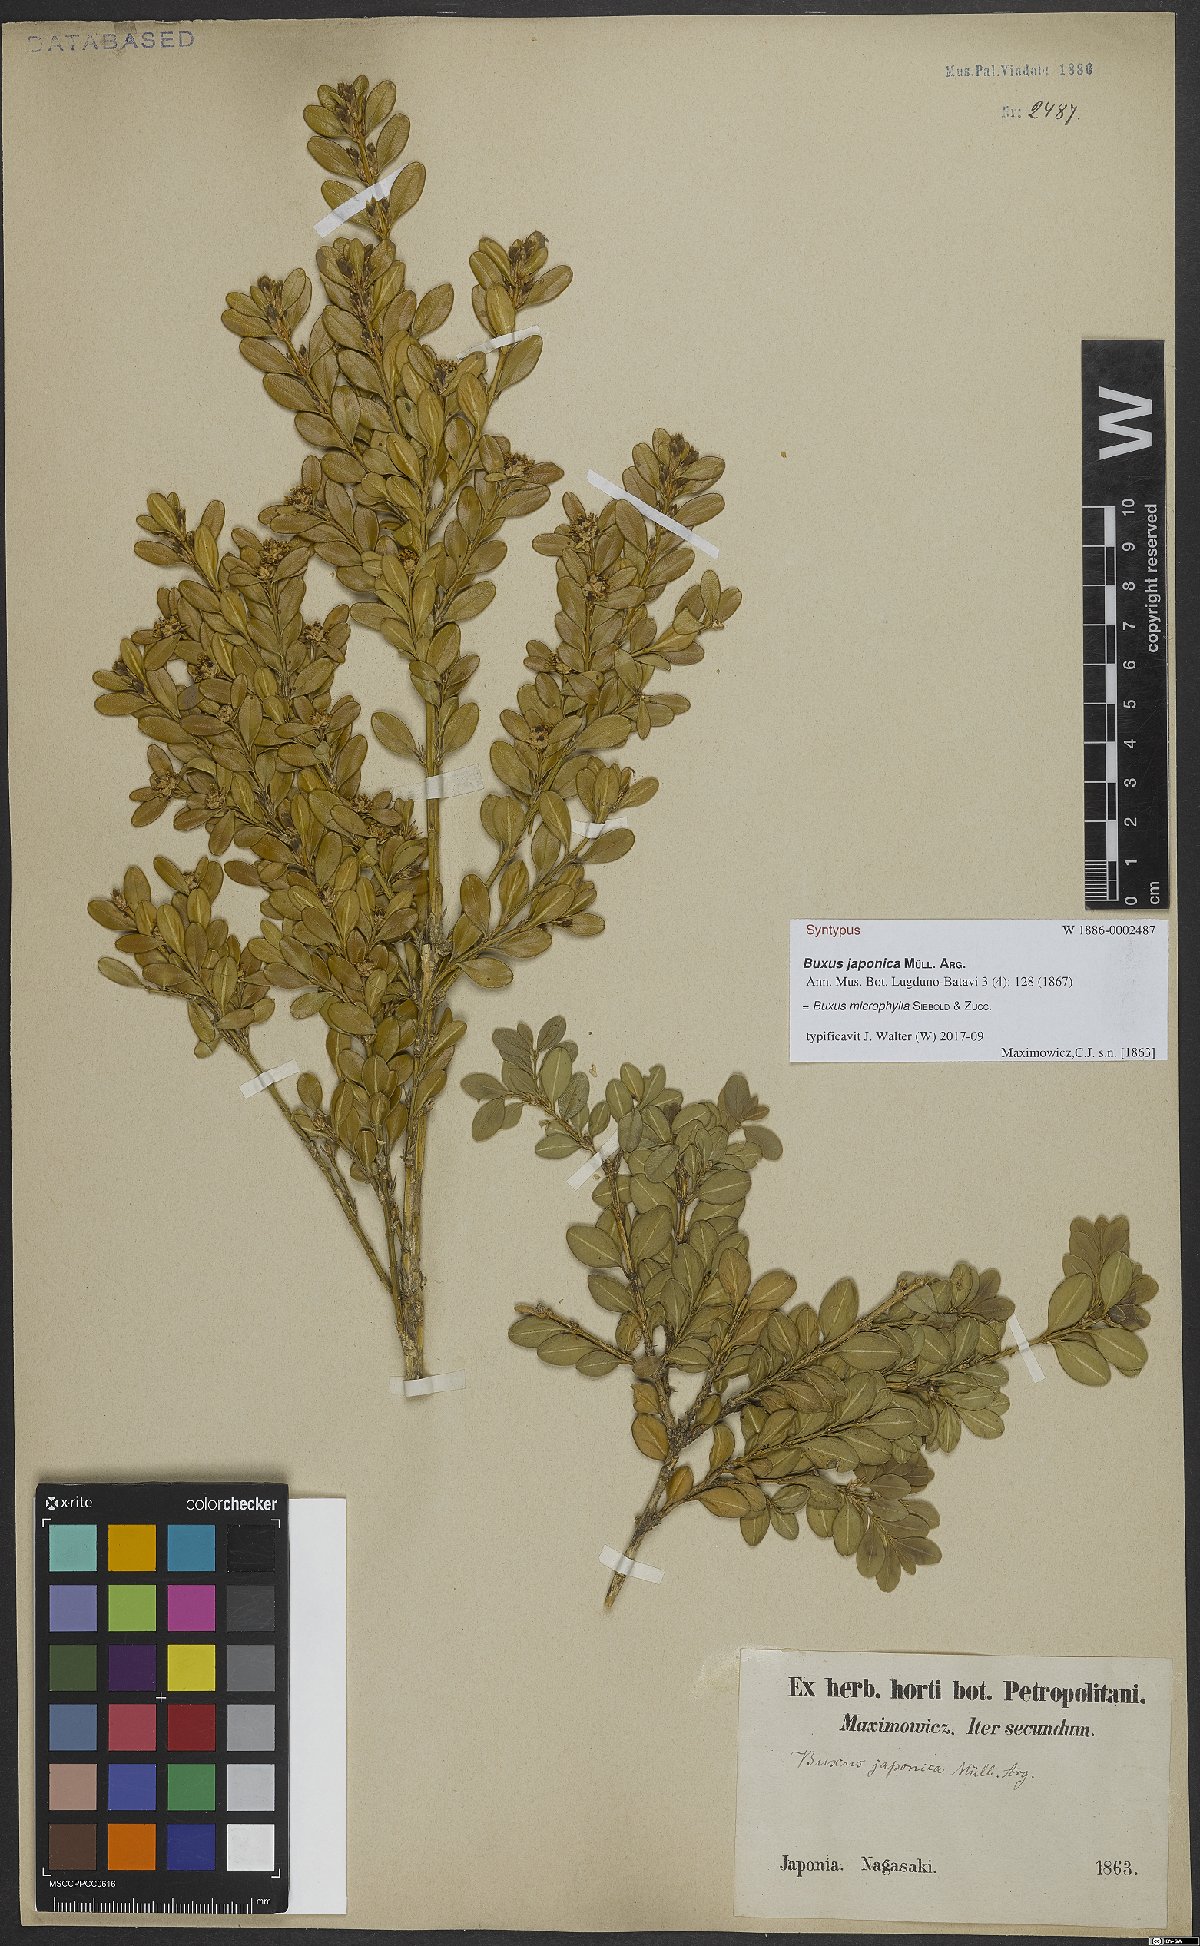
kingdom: Plantae
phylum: Tracheophyta
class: Magnoliopsida
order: Buxales
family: Buxaceae
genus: Buxus
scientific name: Buxus microphylla
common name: Littleleaf boxwood
